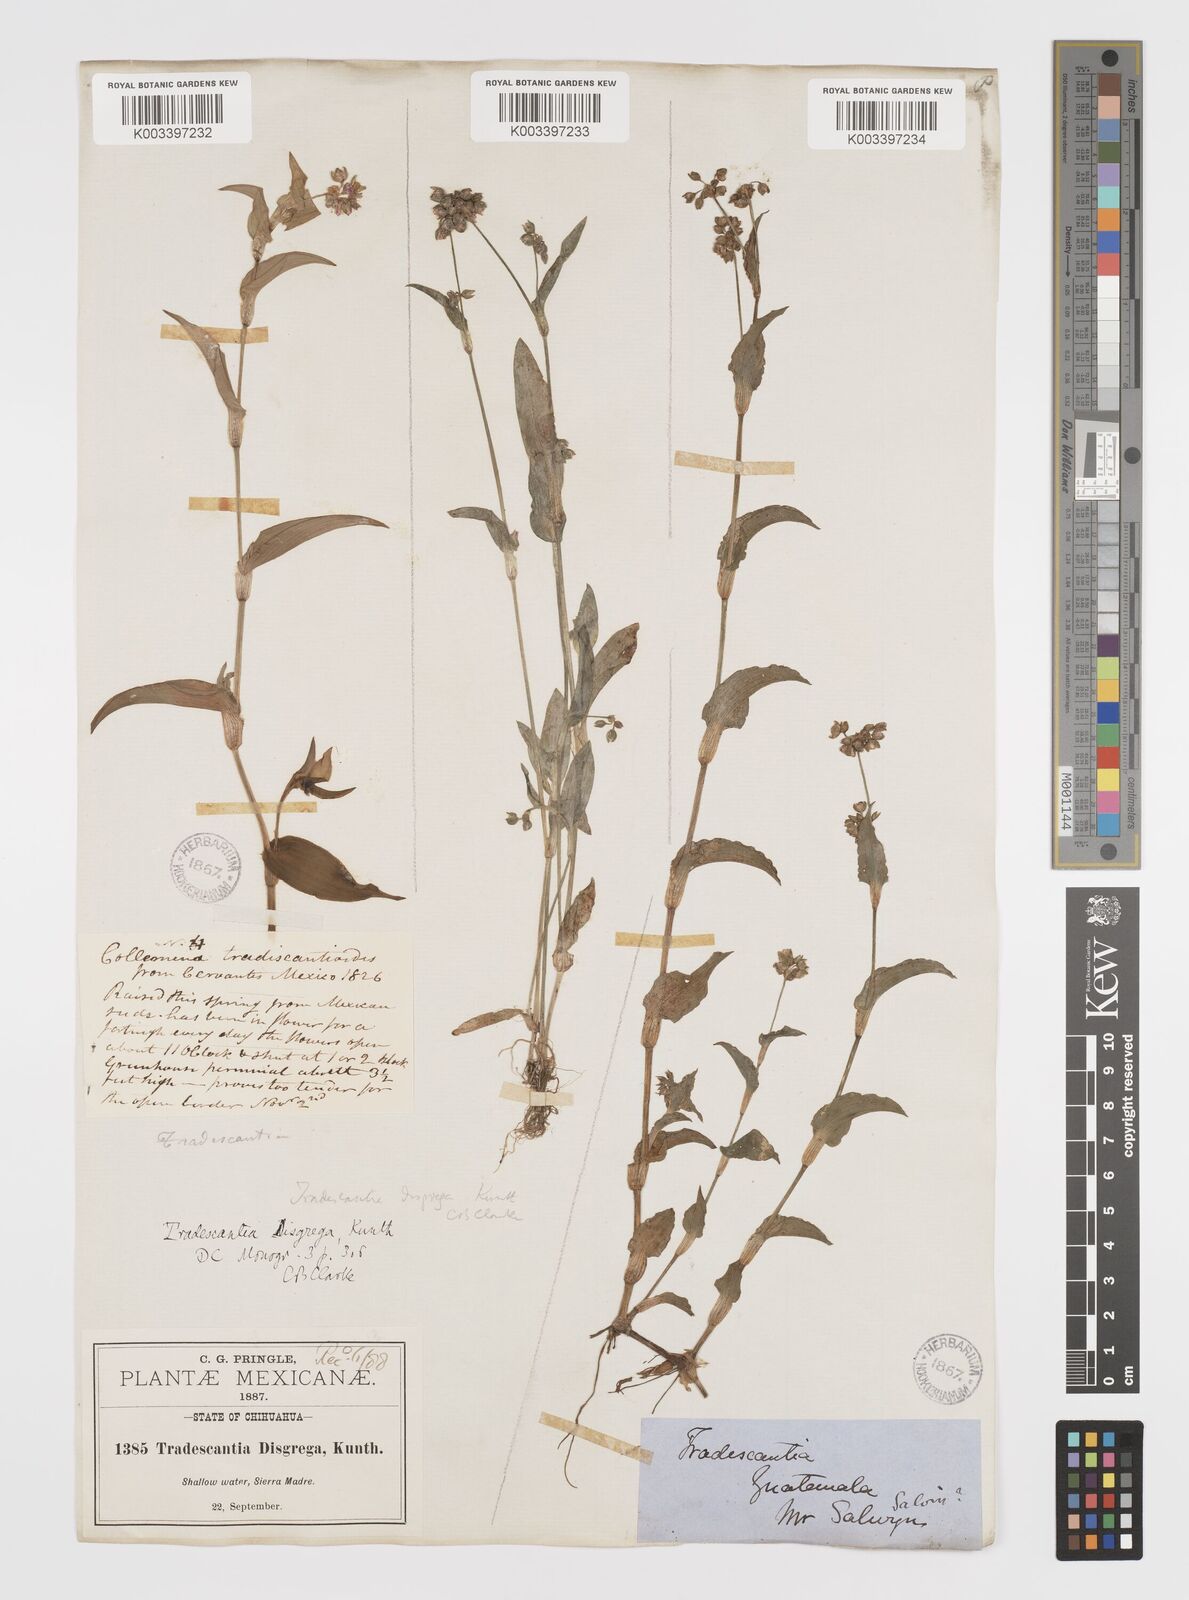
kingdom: Plantae
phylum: Tracheophyta
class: Liliopsida
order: Commelinales
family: Commelinaceae
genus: Callisia
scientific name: Callisia disgrega
